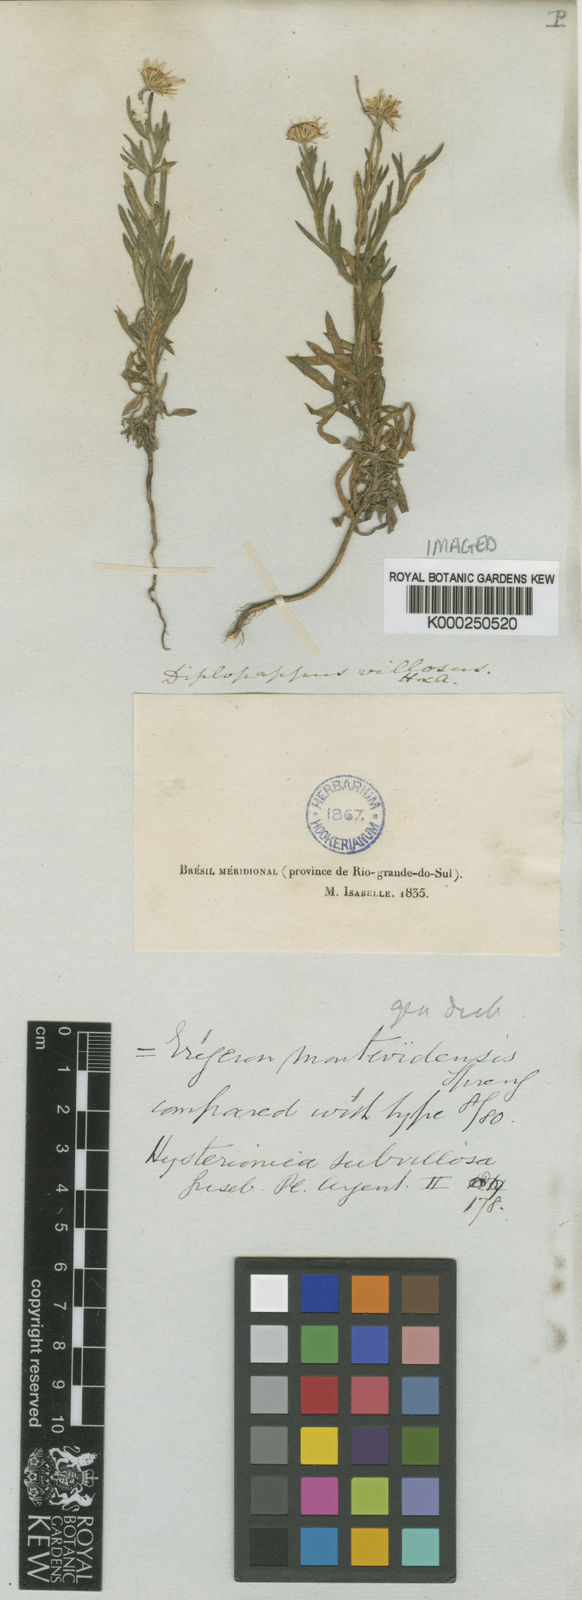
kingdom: Plantae
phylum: Tracheophyta
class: Magnoliopsida
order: Asterales
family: Asteraceae
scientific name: Asteraceae
